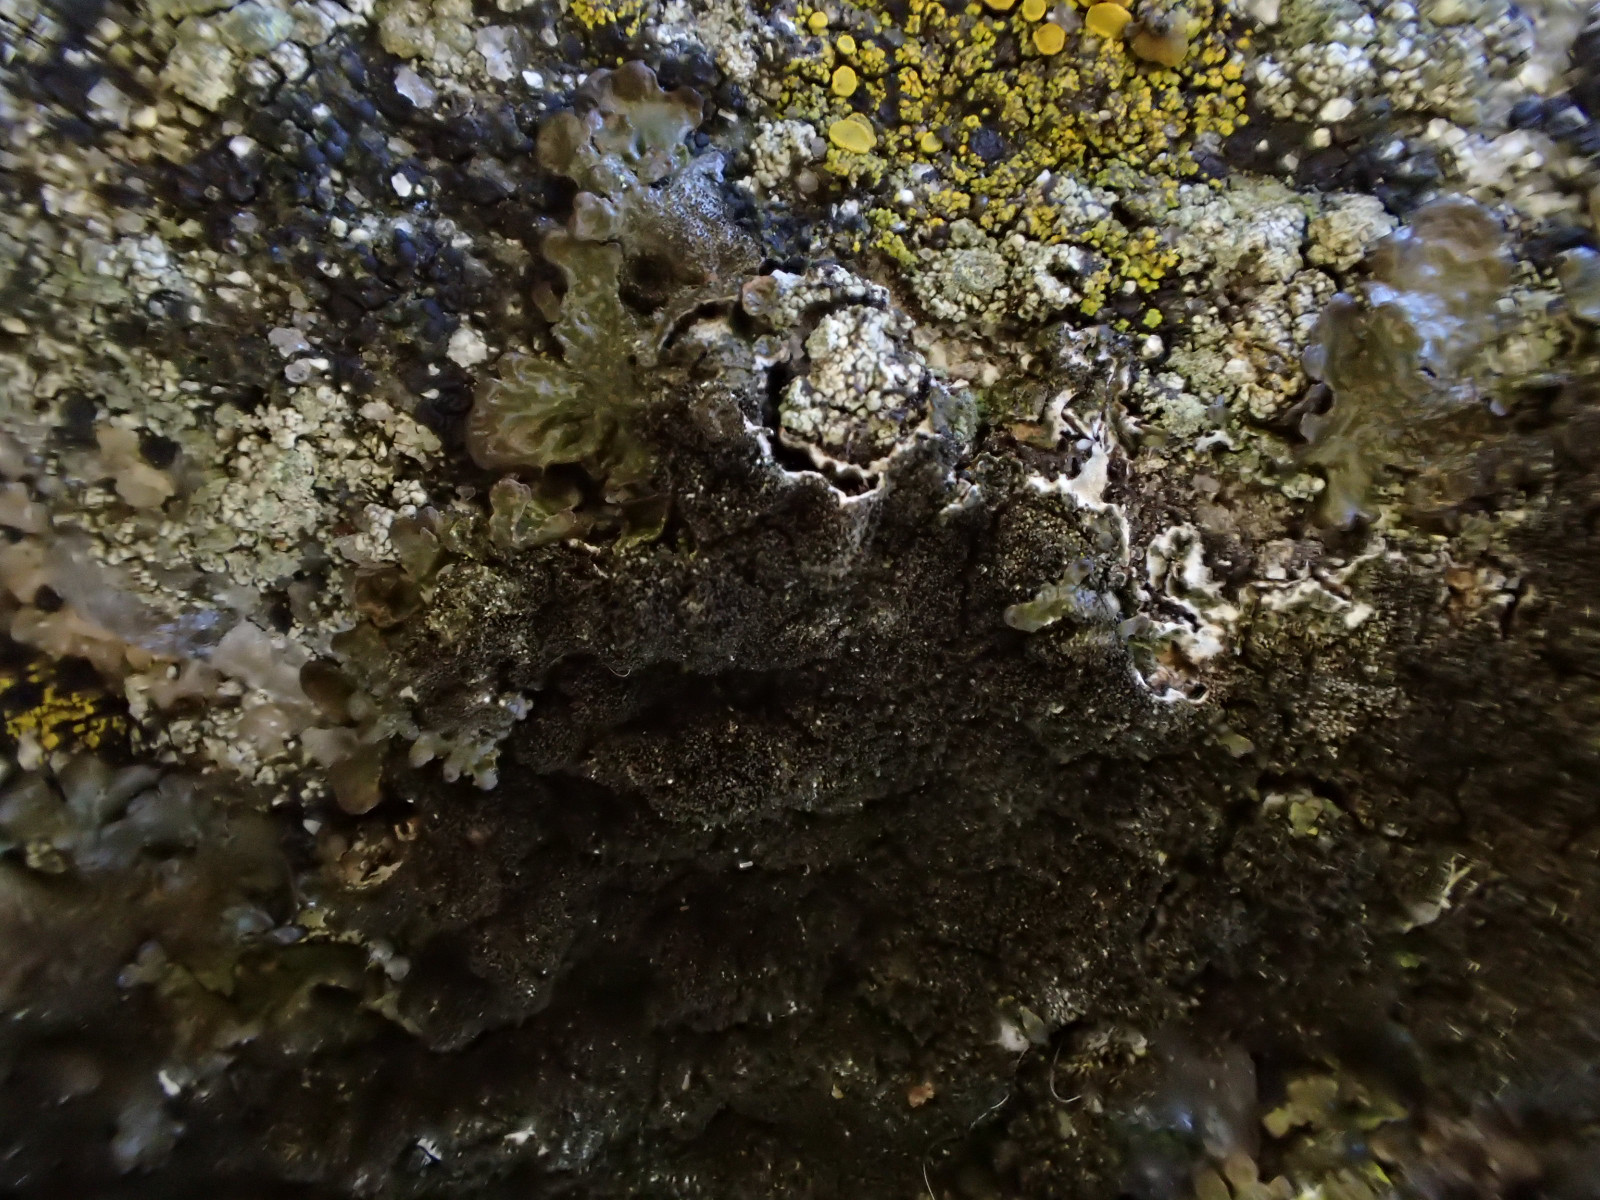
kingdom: Fungi
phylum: Ascomycota
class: Lecanoromycetes
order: Lecanorales
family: Parmeliaceae
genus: Melanelixia
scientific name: Melanelixia fuliginosa
